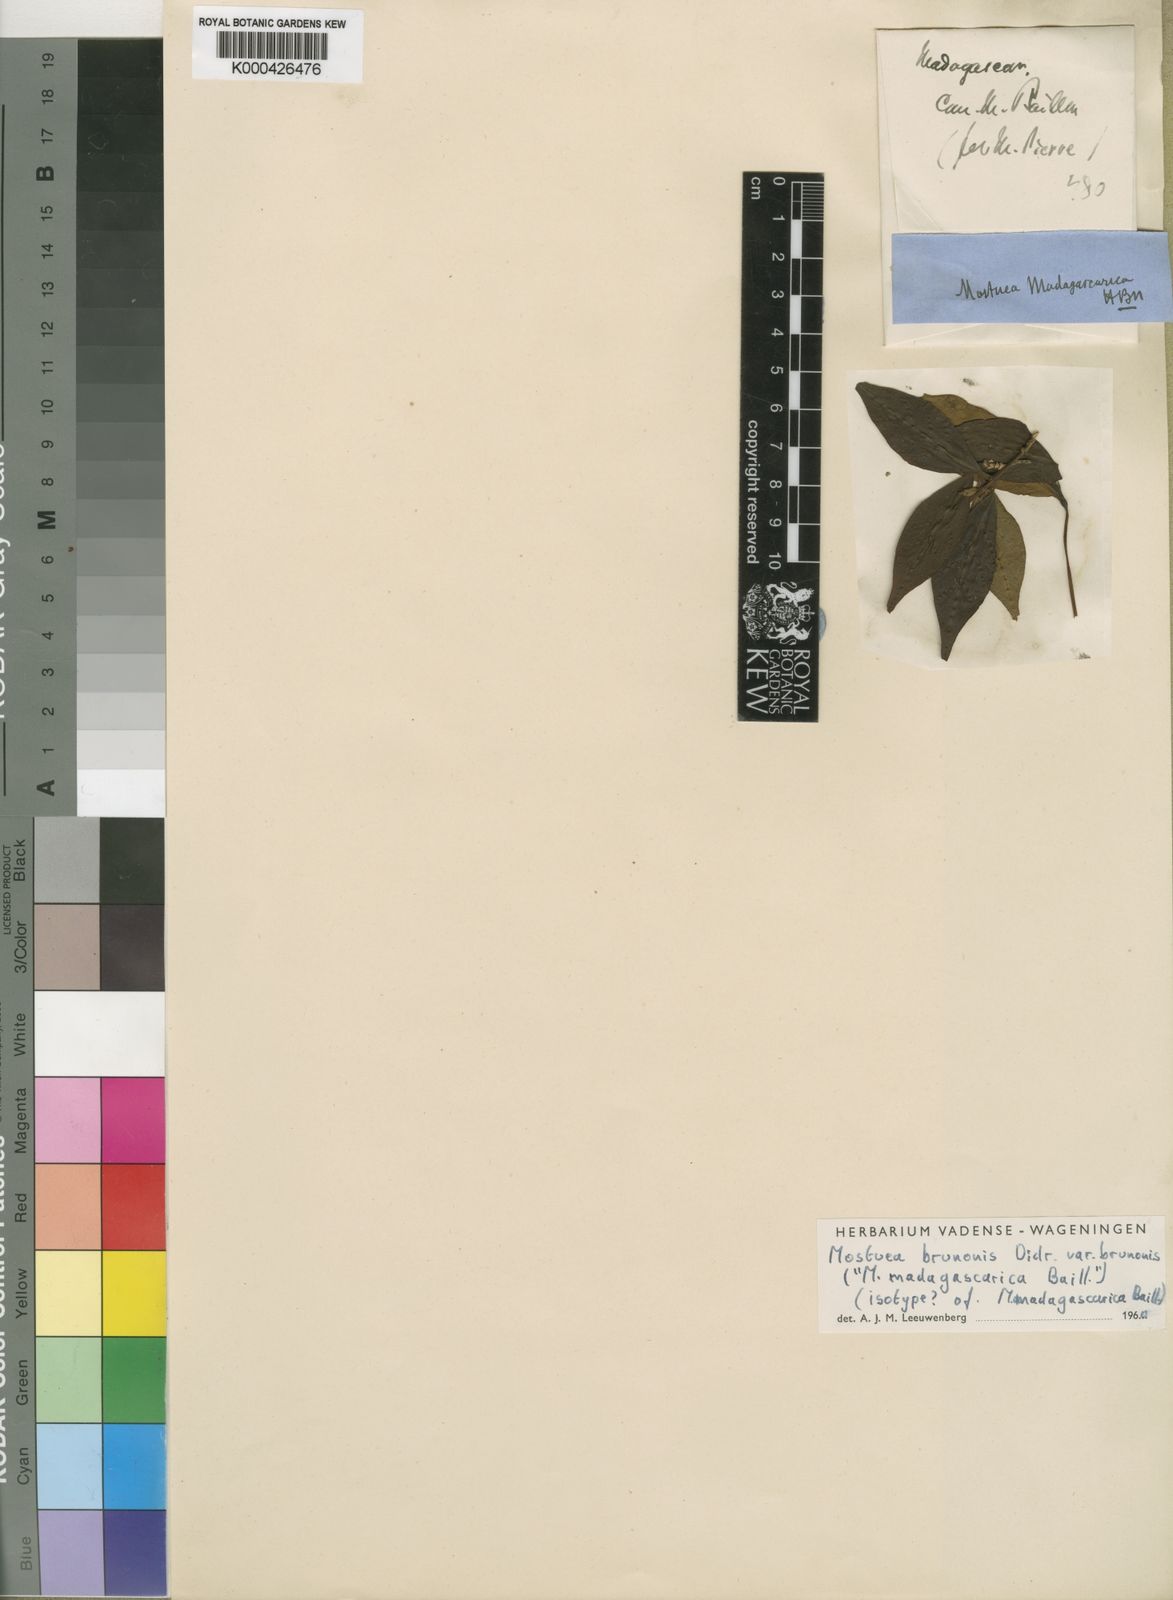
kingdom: Plantae
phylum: Tracheophyta
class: Magnoliopsida
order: Gentianales
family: Gelsemiaceae
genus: Mostuea
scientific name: Mostuea brunonis
